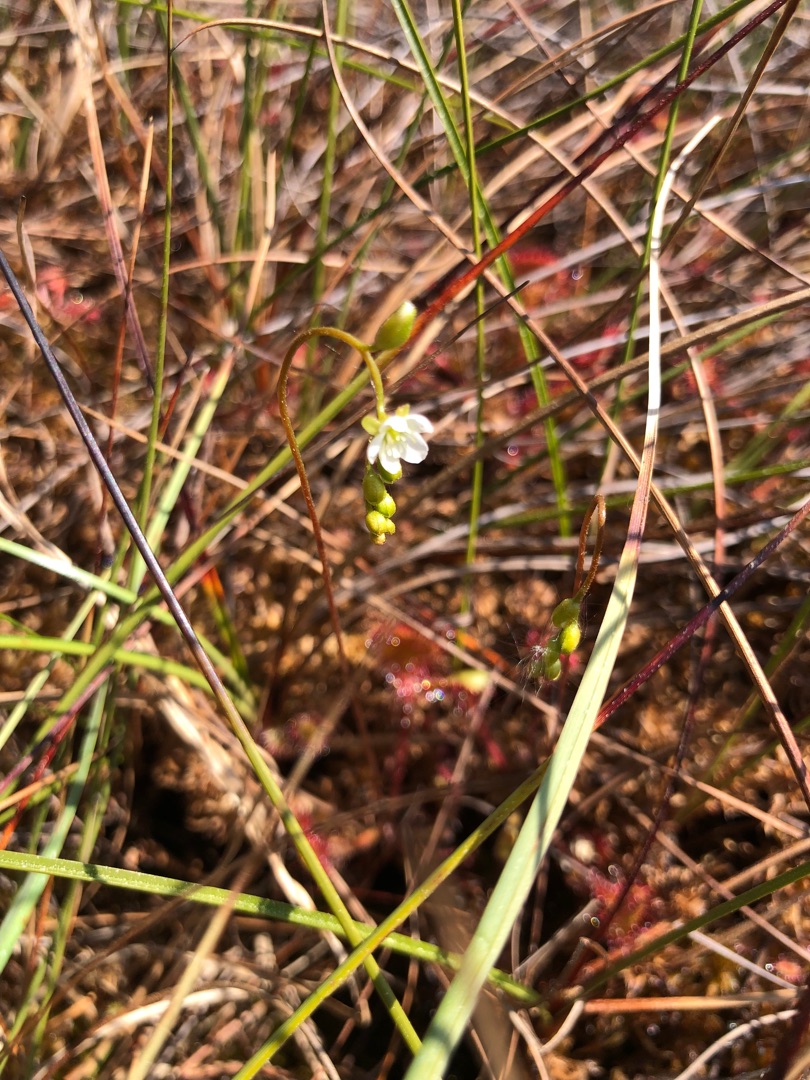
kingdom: Plantae
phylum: Tracheophyta
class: Magnoliopsida
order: Caryophyllales
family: Droseraceae
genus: Drosera
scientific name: Drosera rotundifolia
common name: Rundbladet soldug
